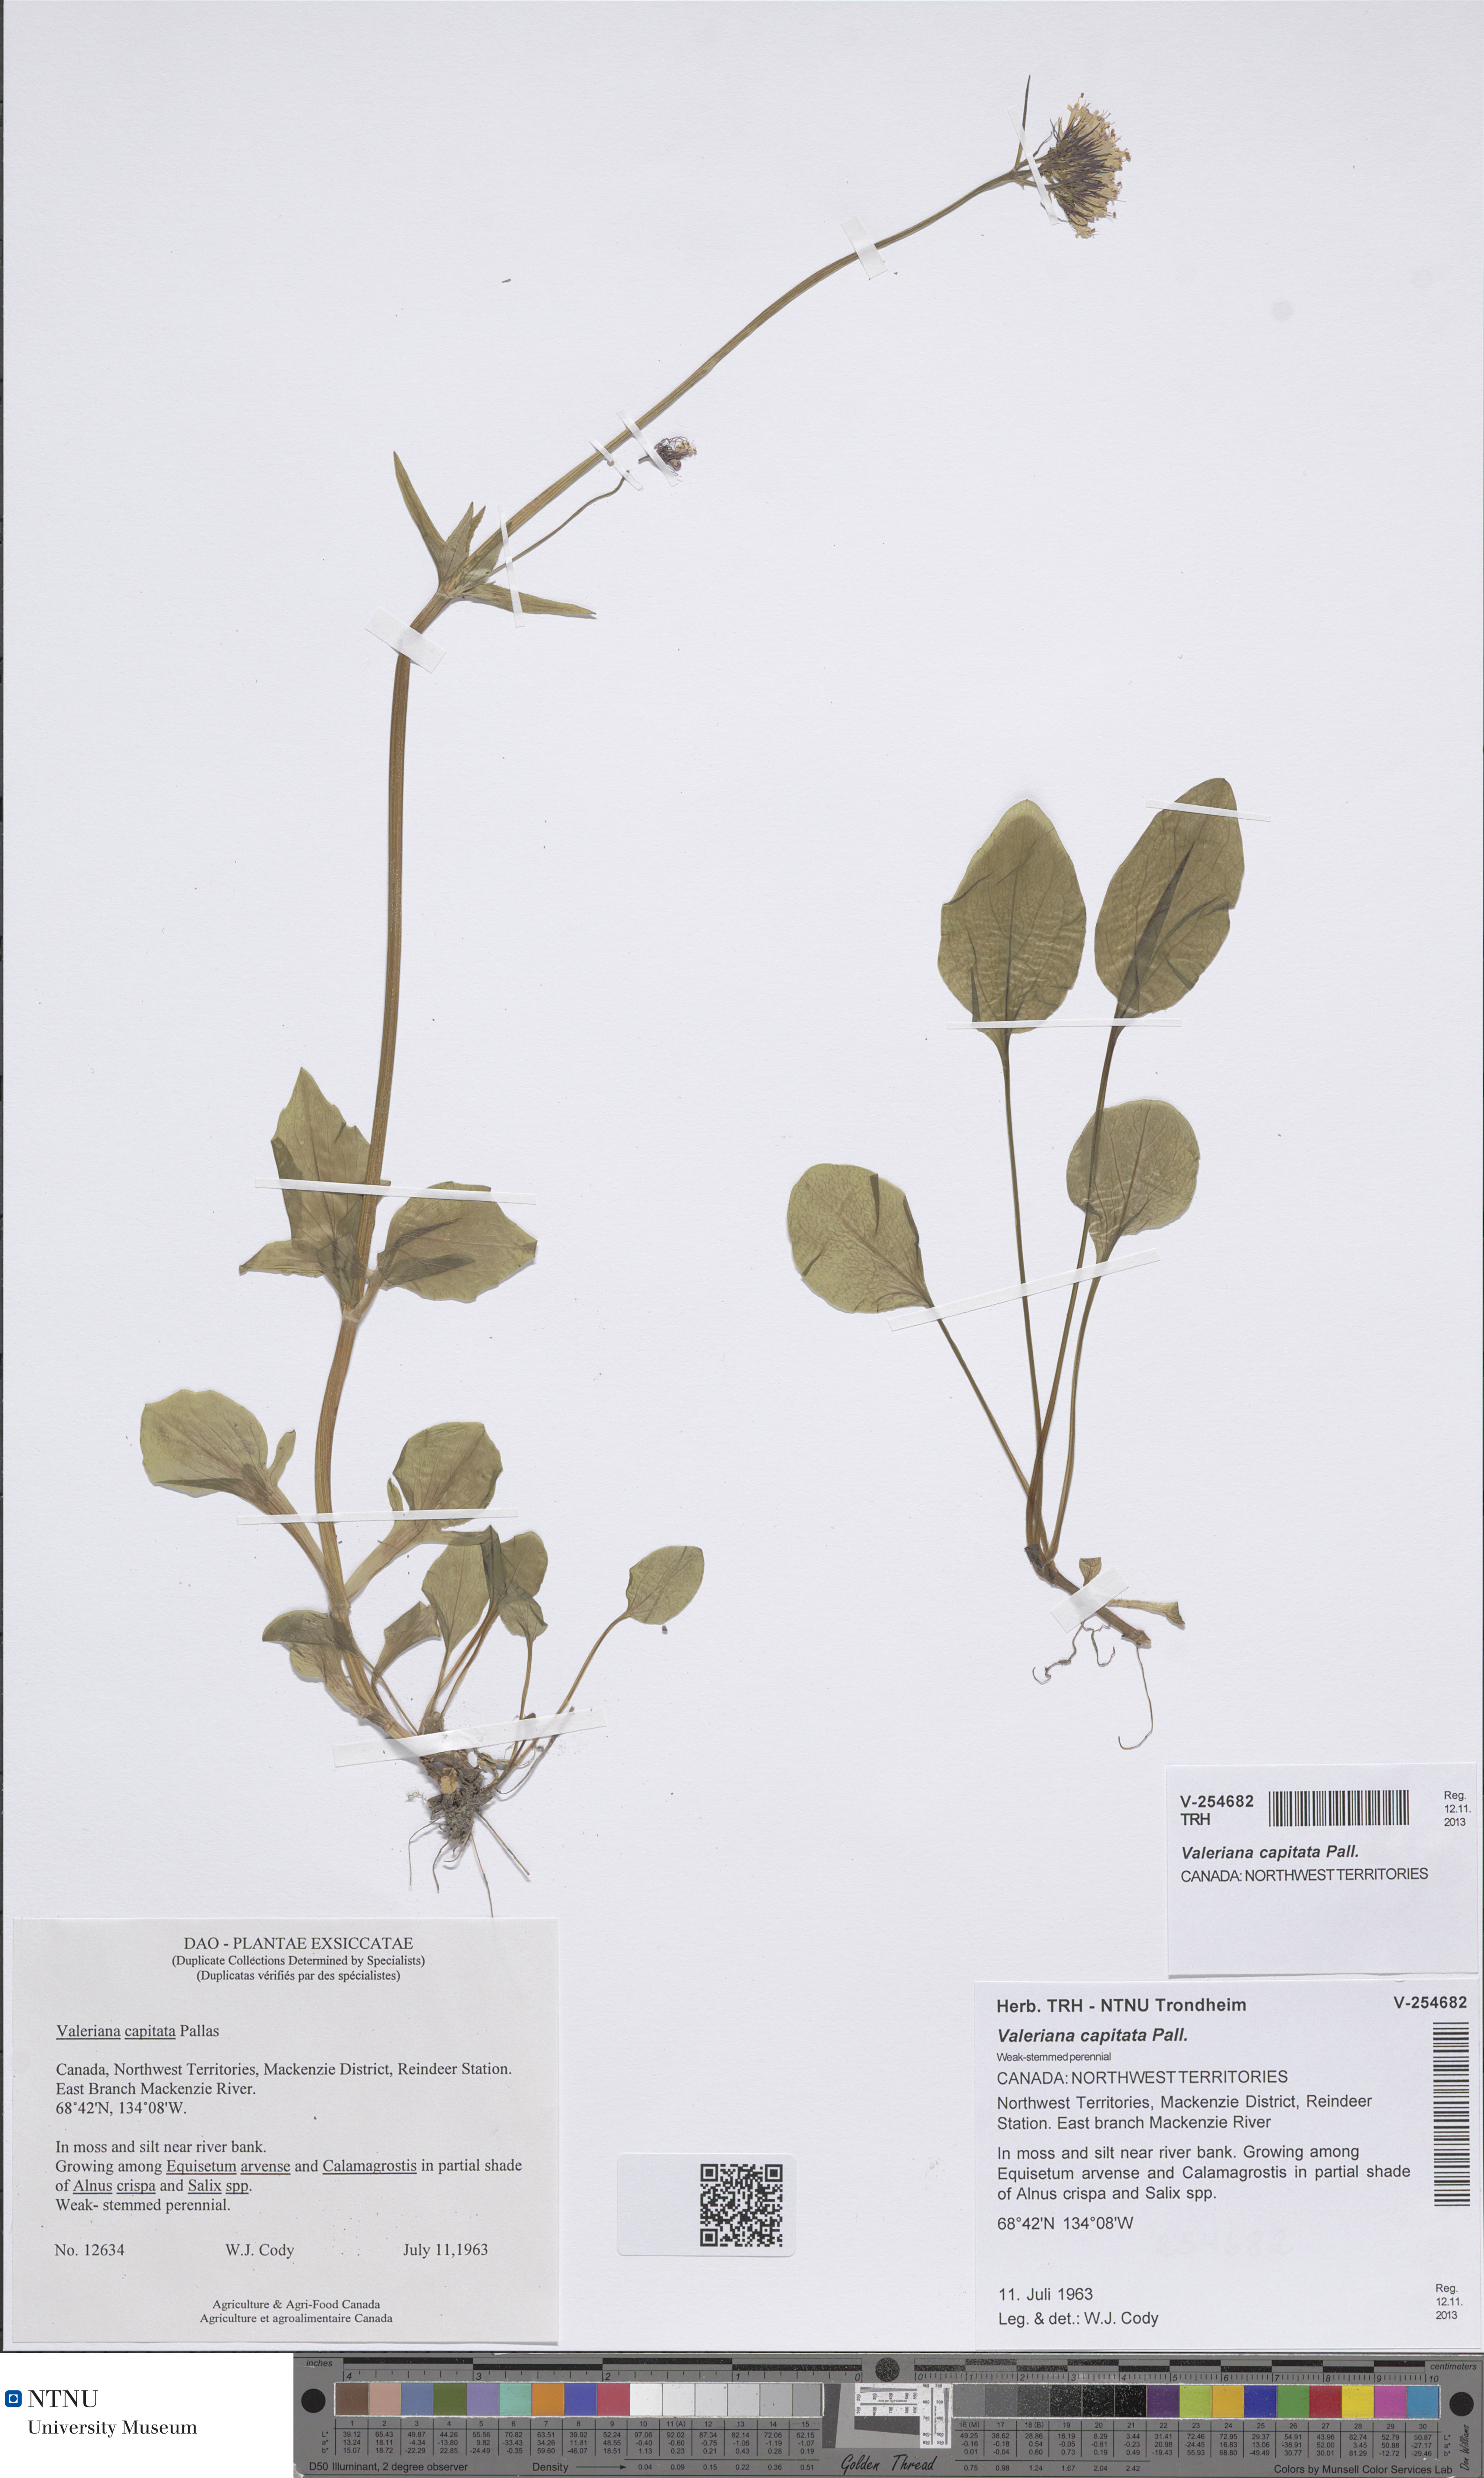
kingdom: Plantae
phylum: Tracheophyta
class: Magnoliopsida
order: Dipsacales
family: Caprifoliaceae
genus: Valeriana
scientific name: Valeriana capitata
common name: Capitate valerian
